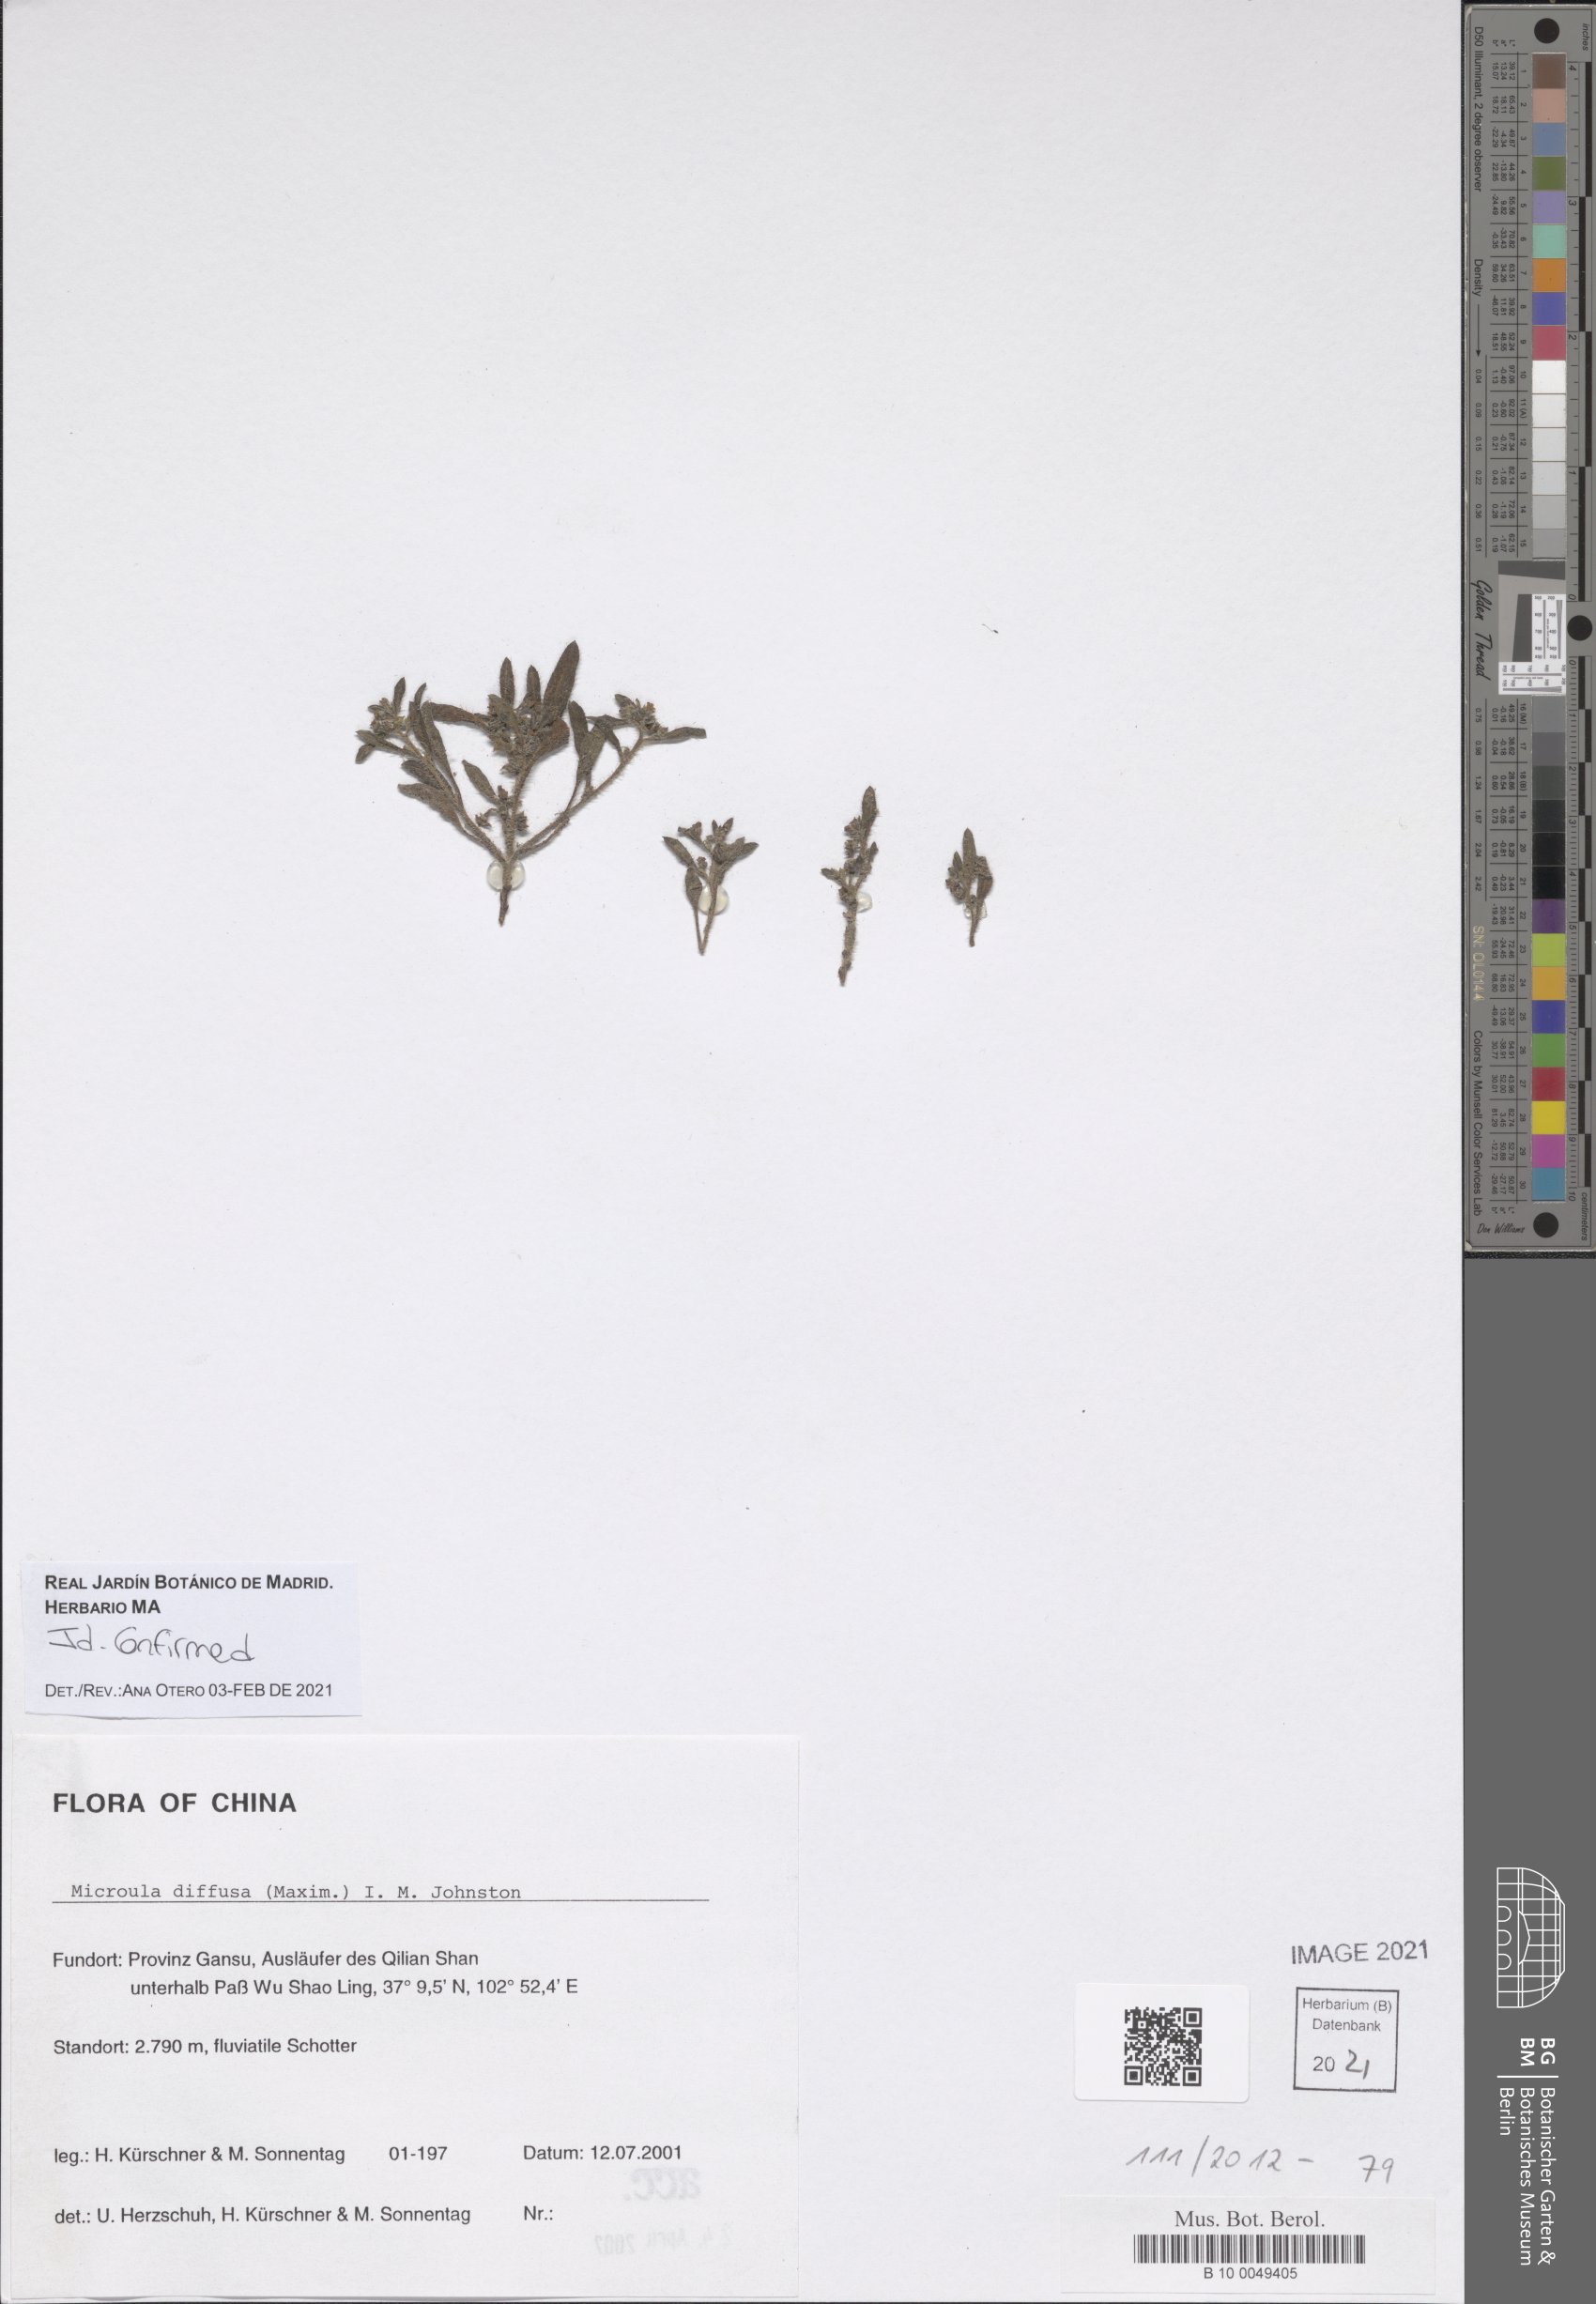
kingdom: Plantae
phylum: Tracheophyta
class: Magnoliopsida
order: Boraginales
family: Boraginaceae
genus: Microula
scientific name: Microula diffusa
